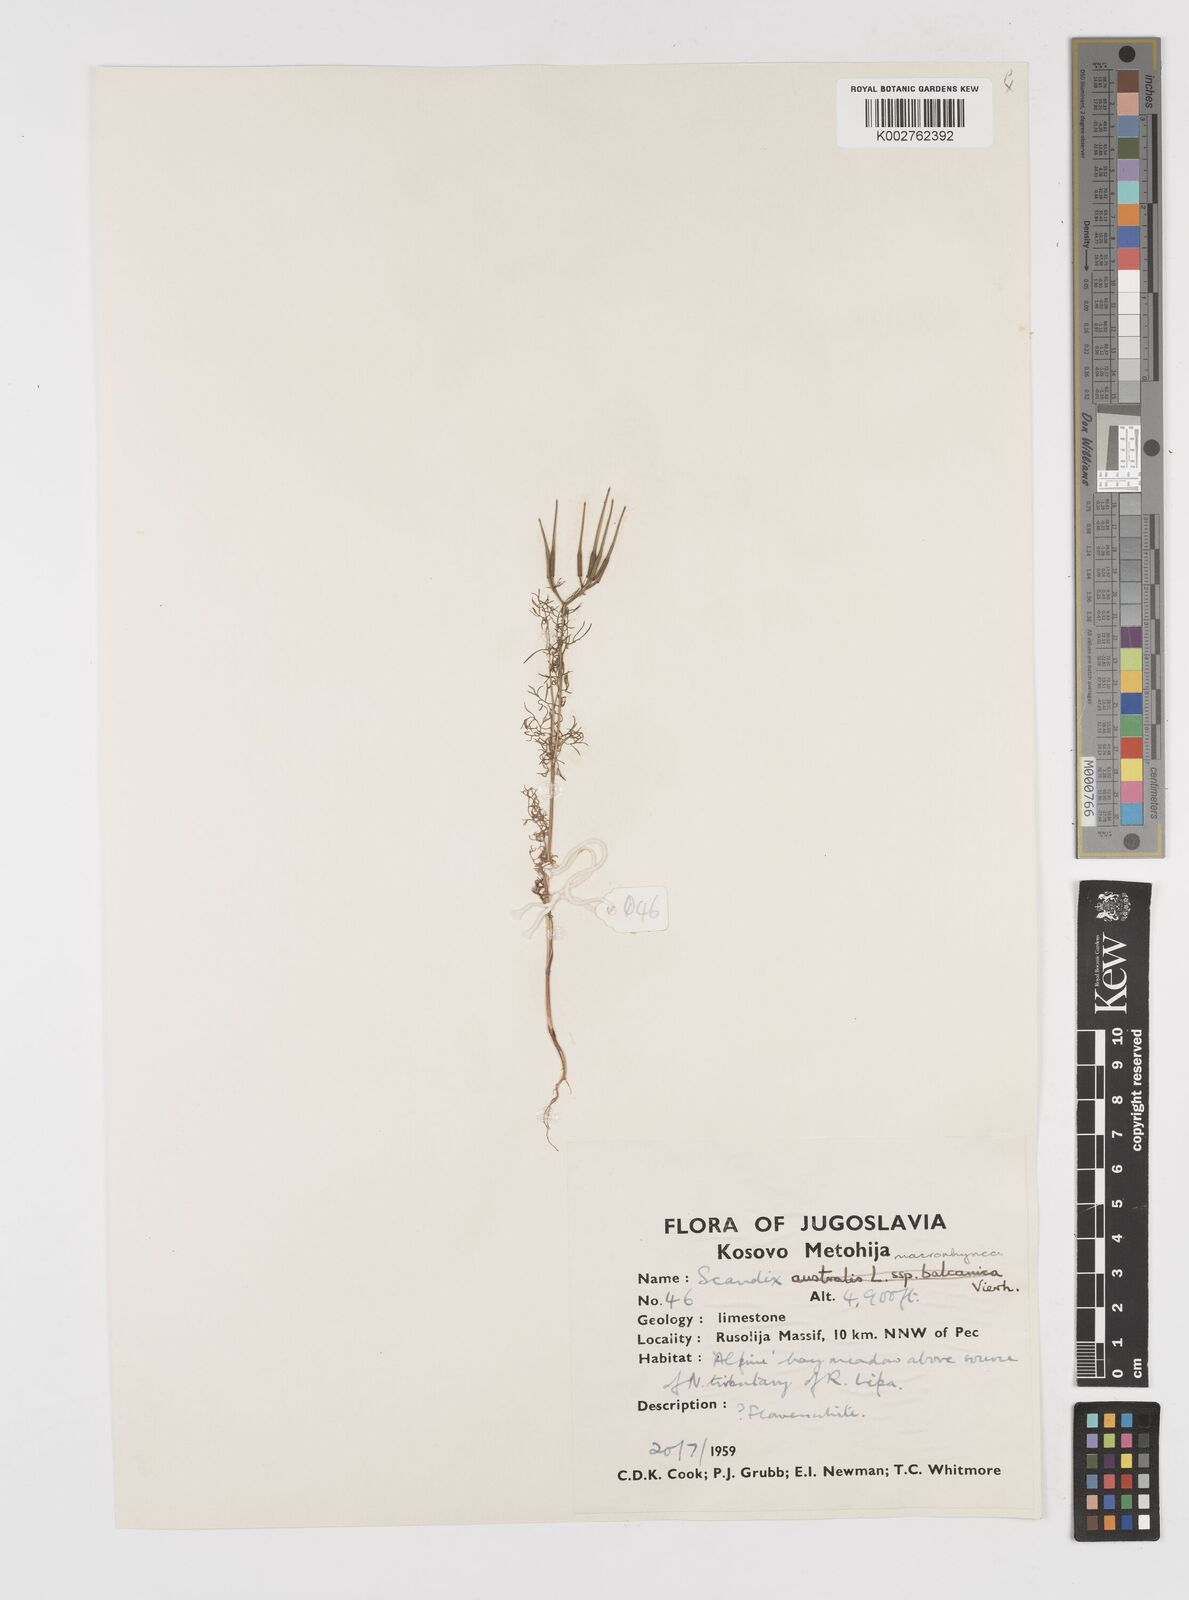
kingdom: Plantae
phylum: Tracheophyta
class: Magnoliopsida
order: Apiales
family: Apiaceae
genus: Scandix
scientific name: Scandix pecten-veneris
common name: Shepherd's-needle
